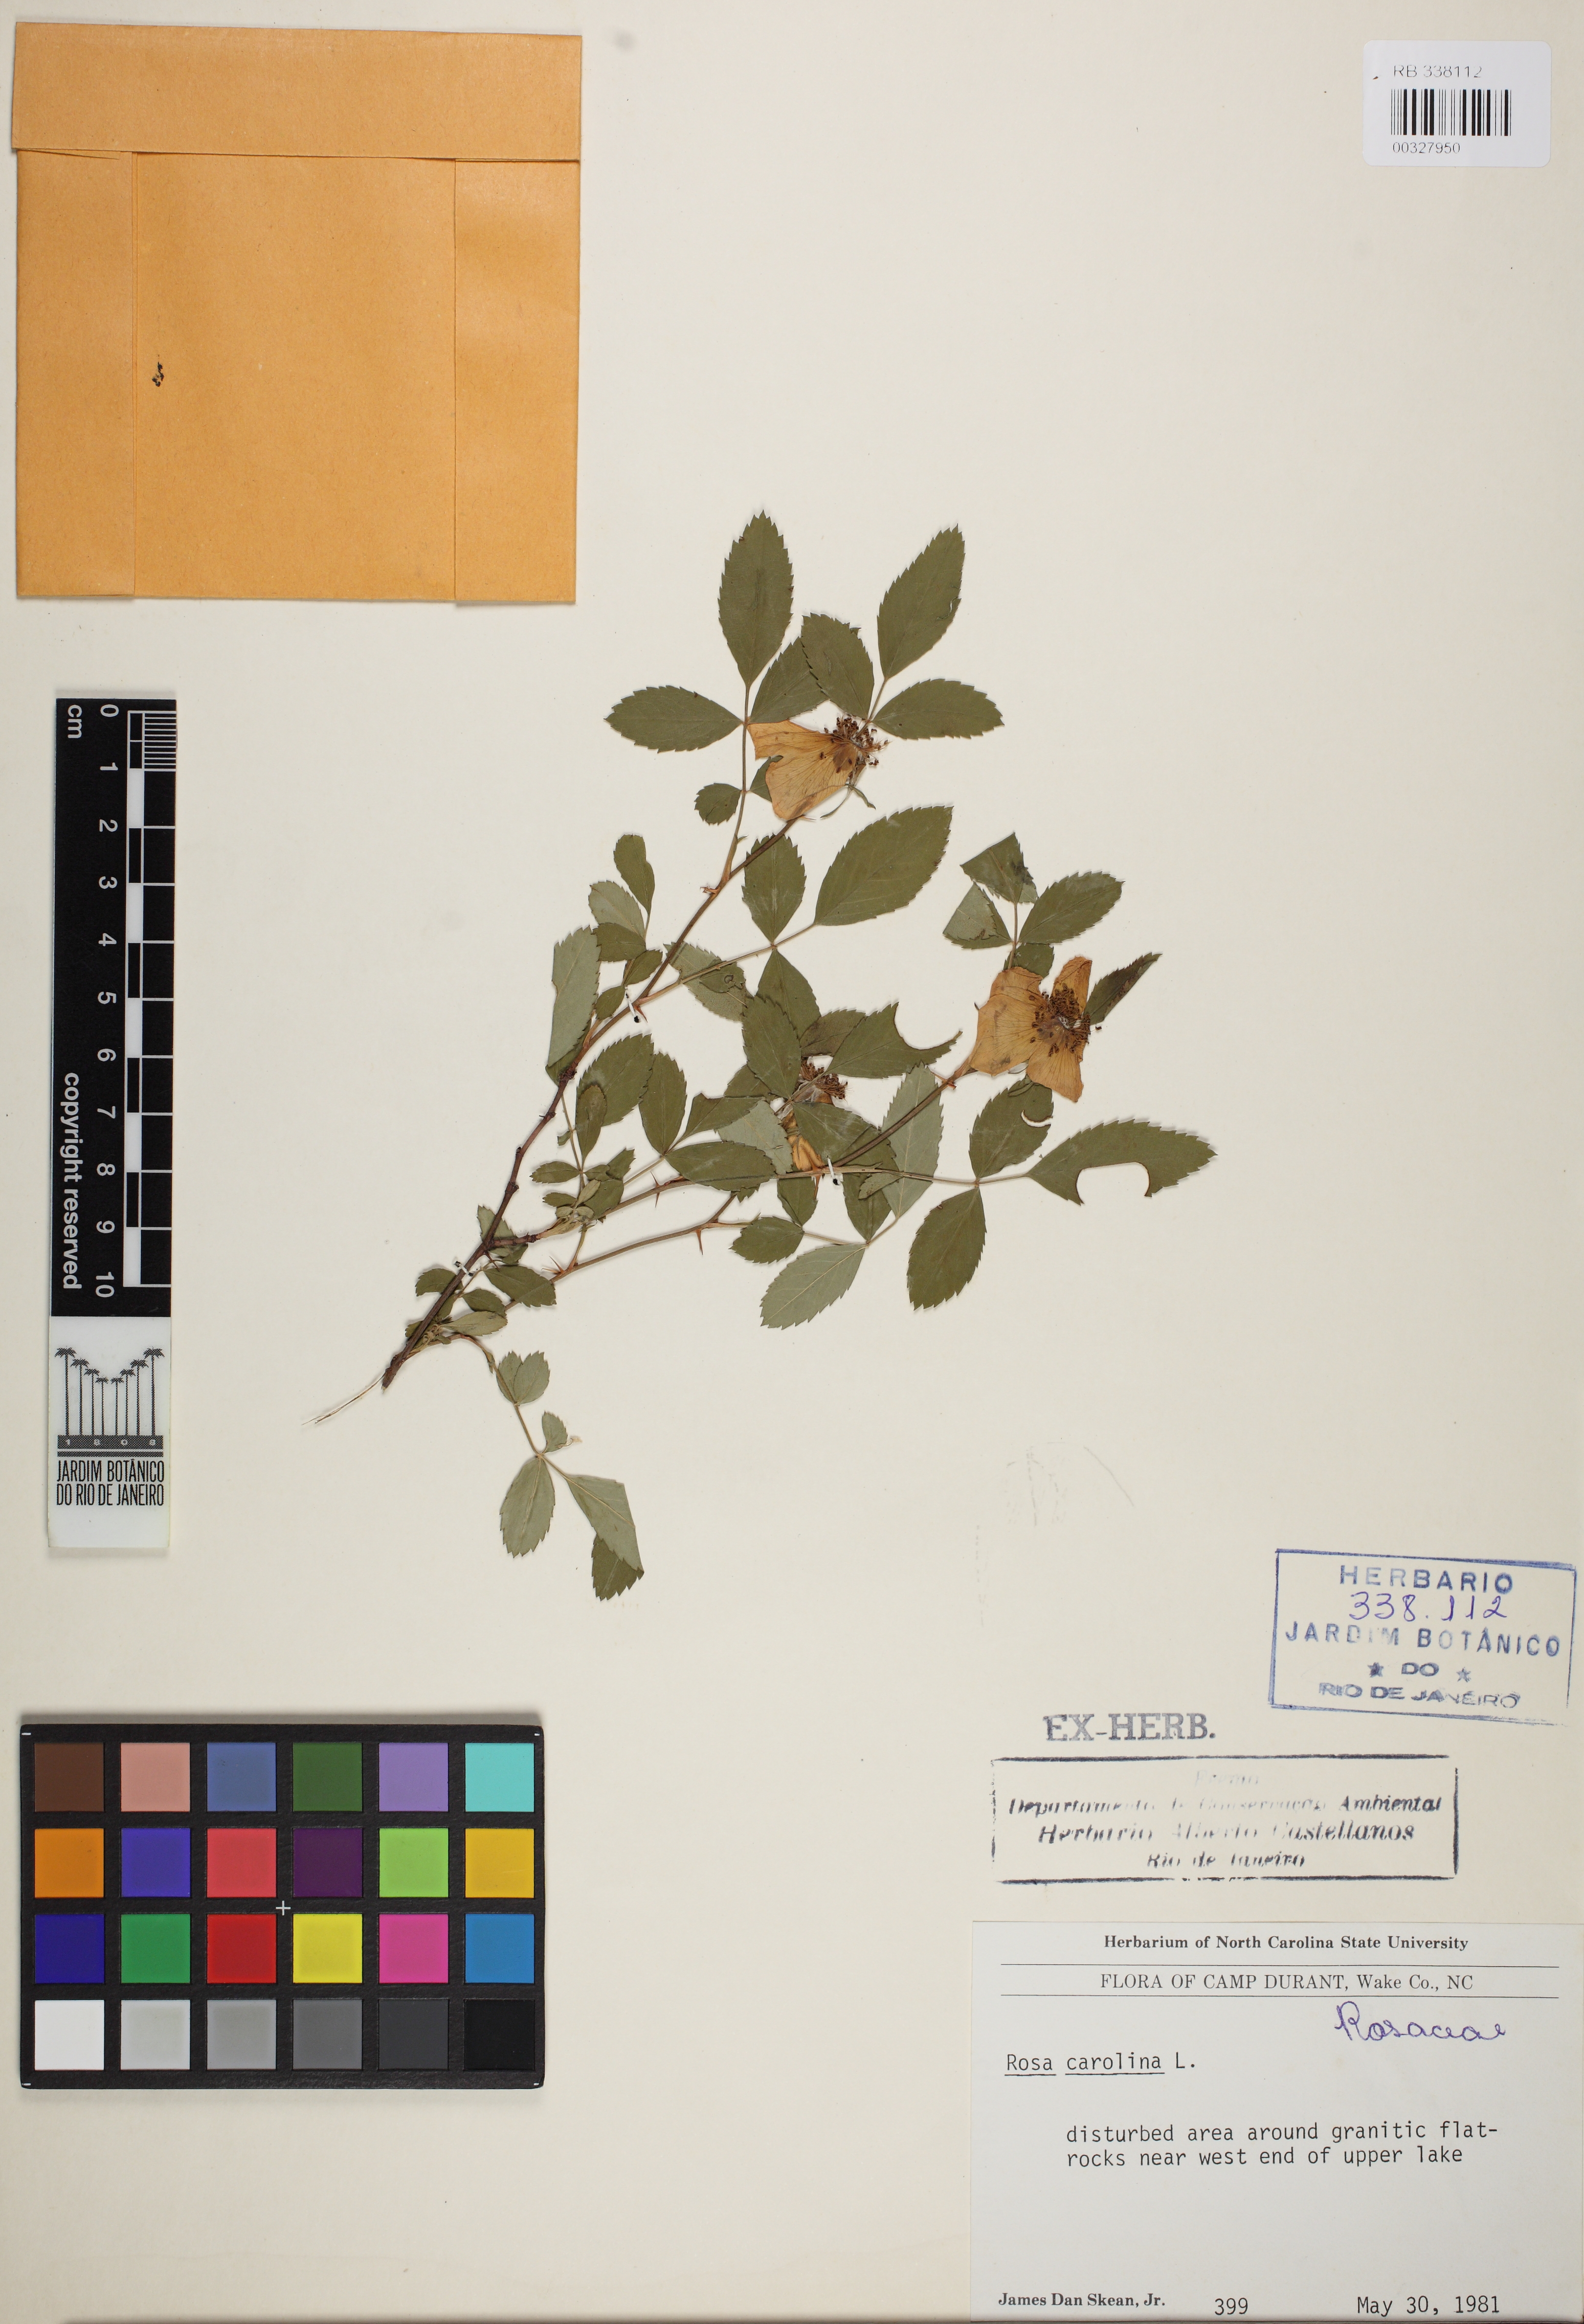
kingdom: Plantae
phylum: Tracheophyta
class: Magnoliopsida
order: Rosales
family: Rosaceae
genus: Rosa
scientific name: Rosa carolina
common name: Pasture rose
